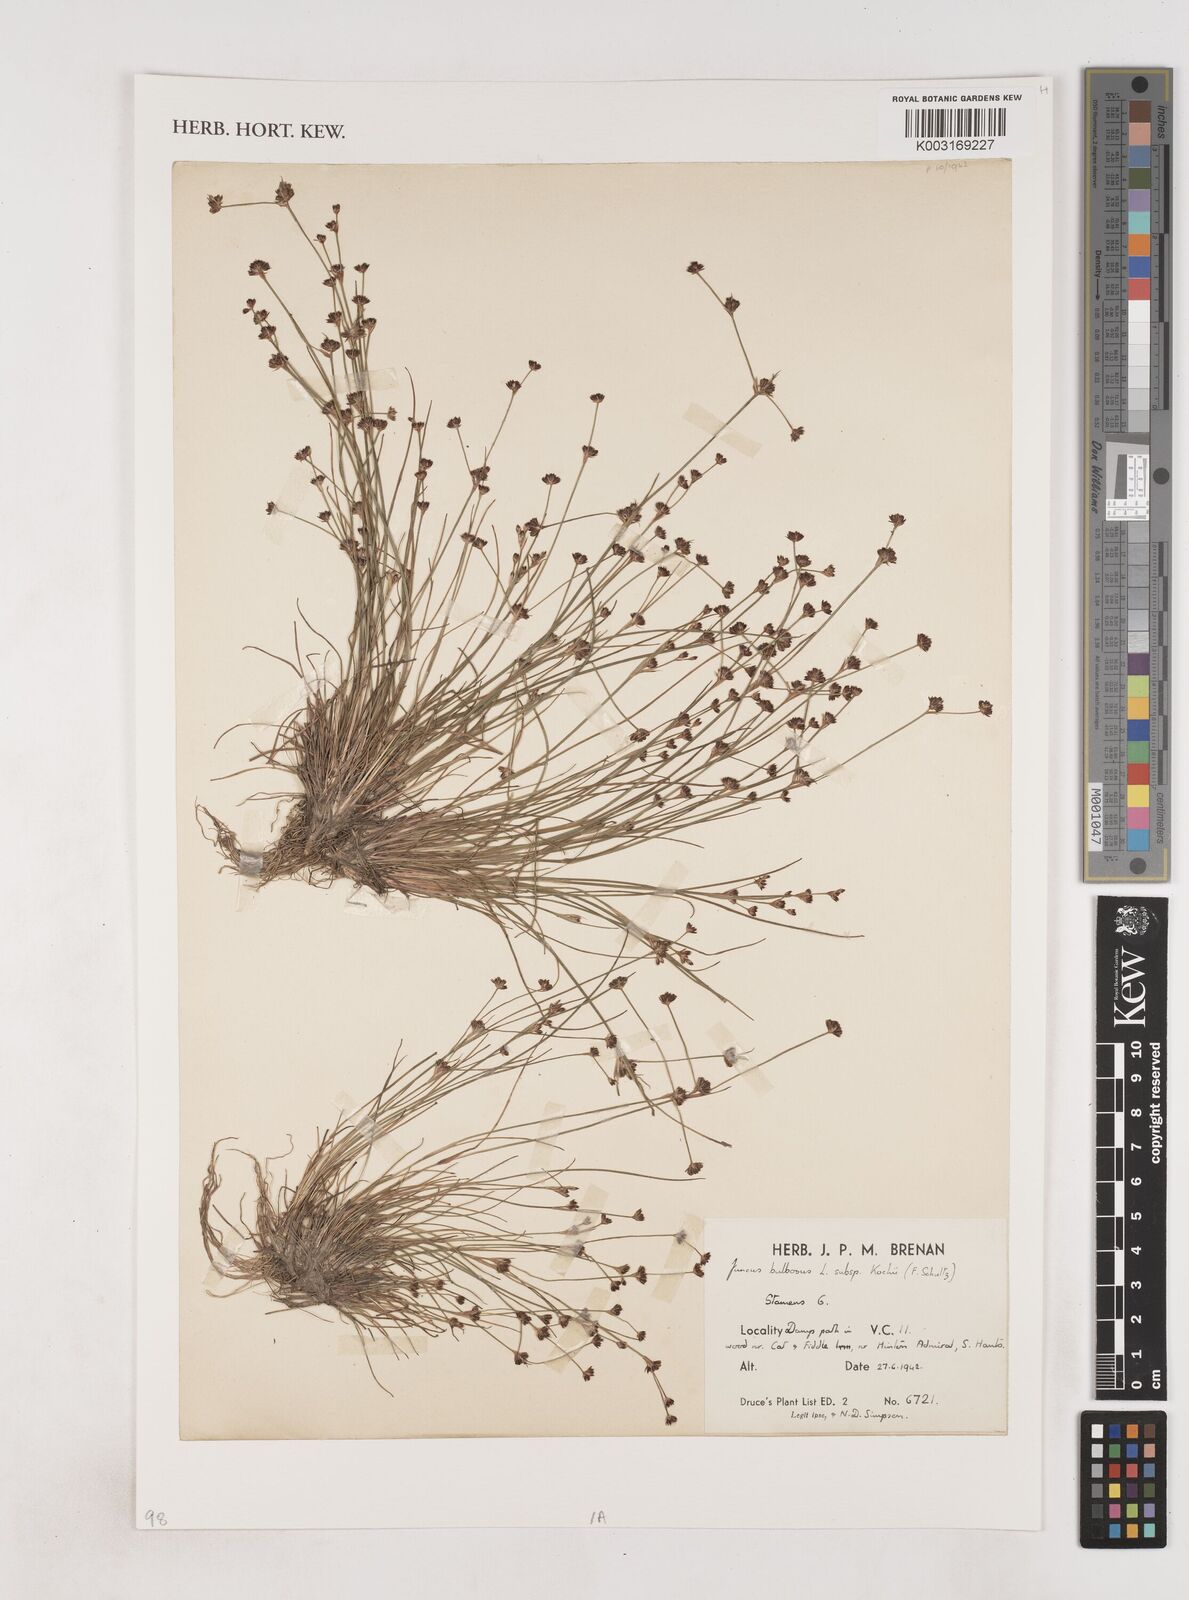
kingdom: Plantae
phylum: Tracheophyta
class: Liliopsida
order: Poales
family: Juncaceae
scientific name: Juncaceae
